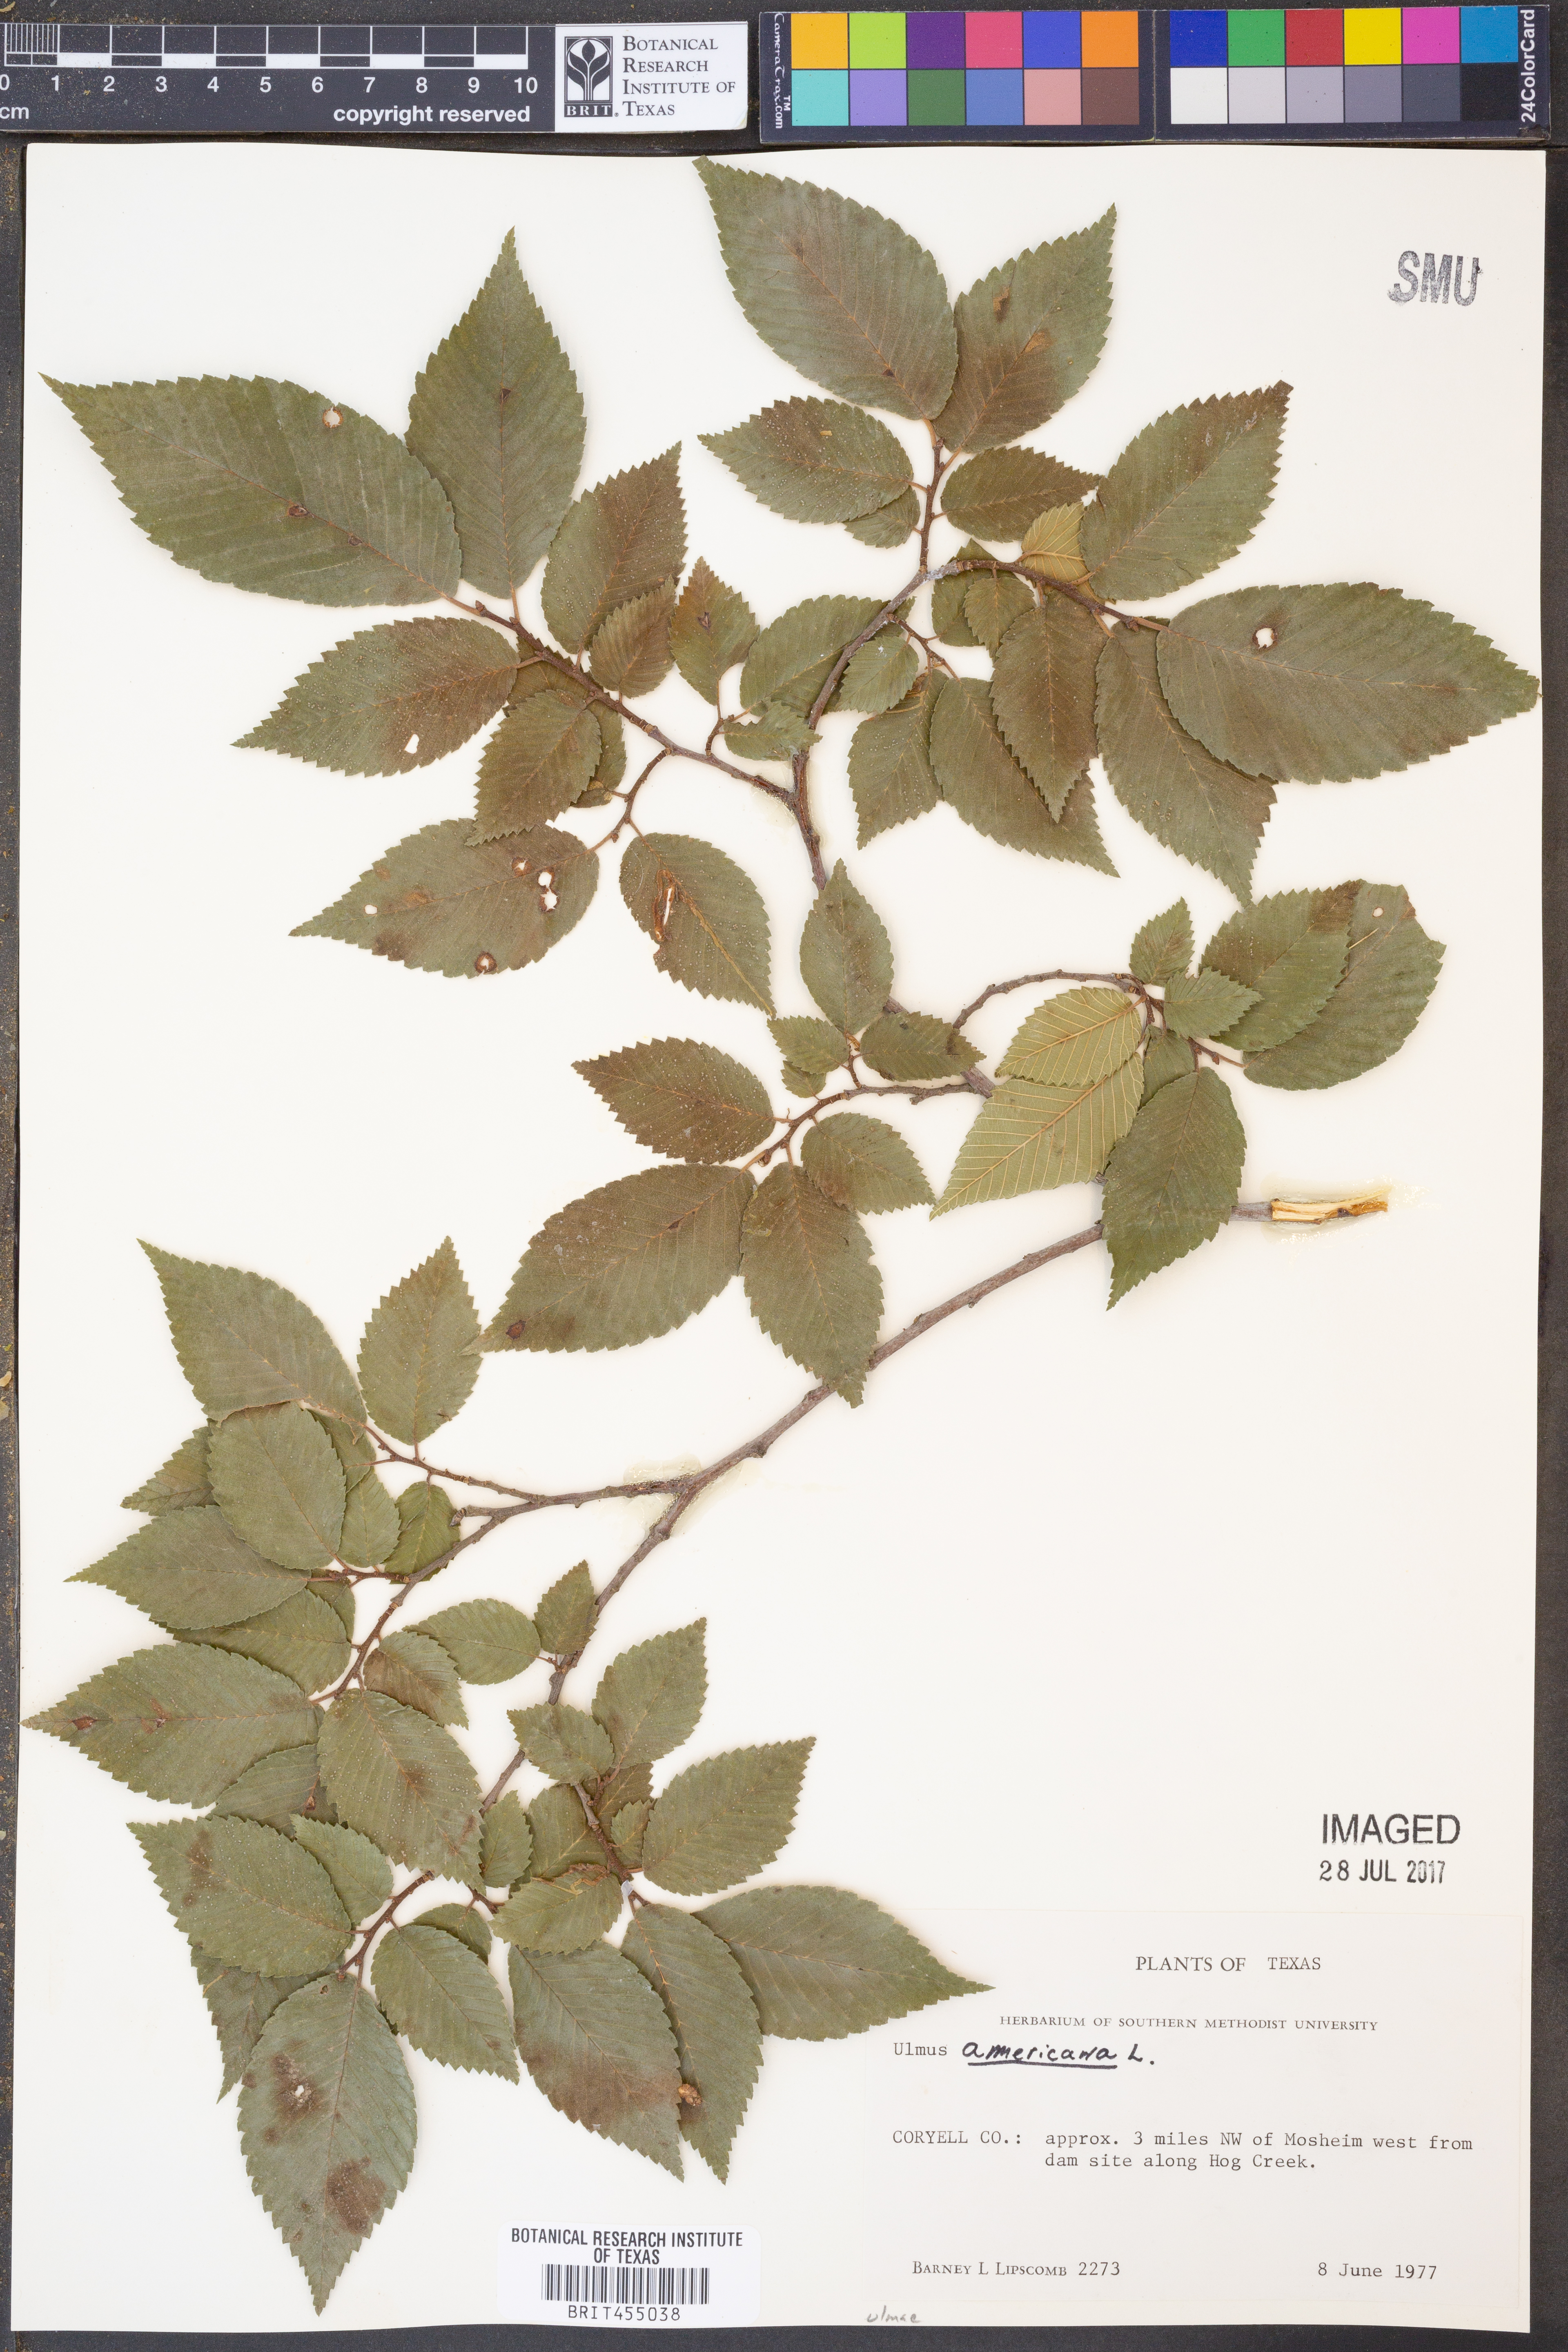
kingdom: Plantae
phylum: Tracheophyta
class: Magnoliopsida
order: Rosales
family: Ulmaceae
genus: Ulmus
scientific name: Ulmus americana
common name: American elm
